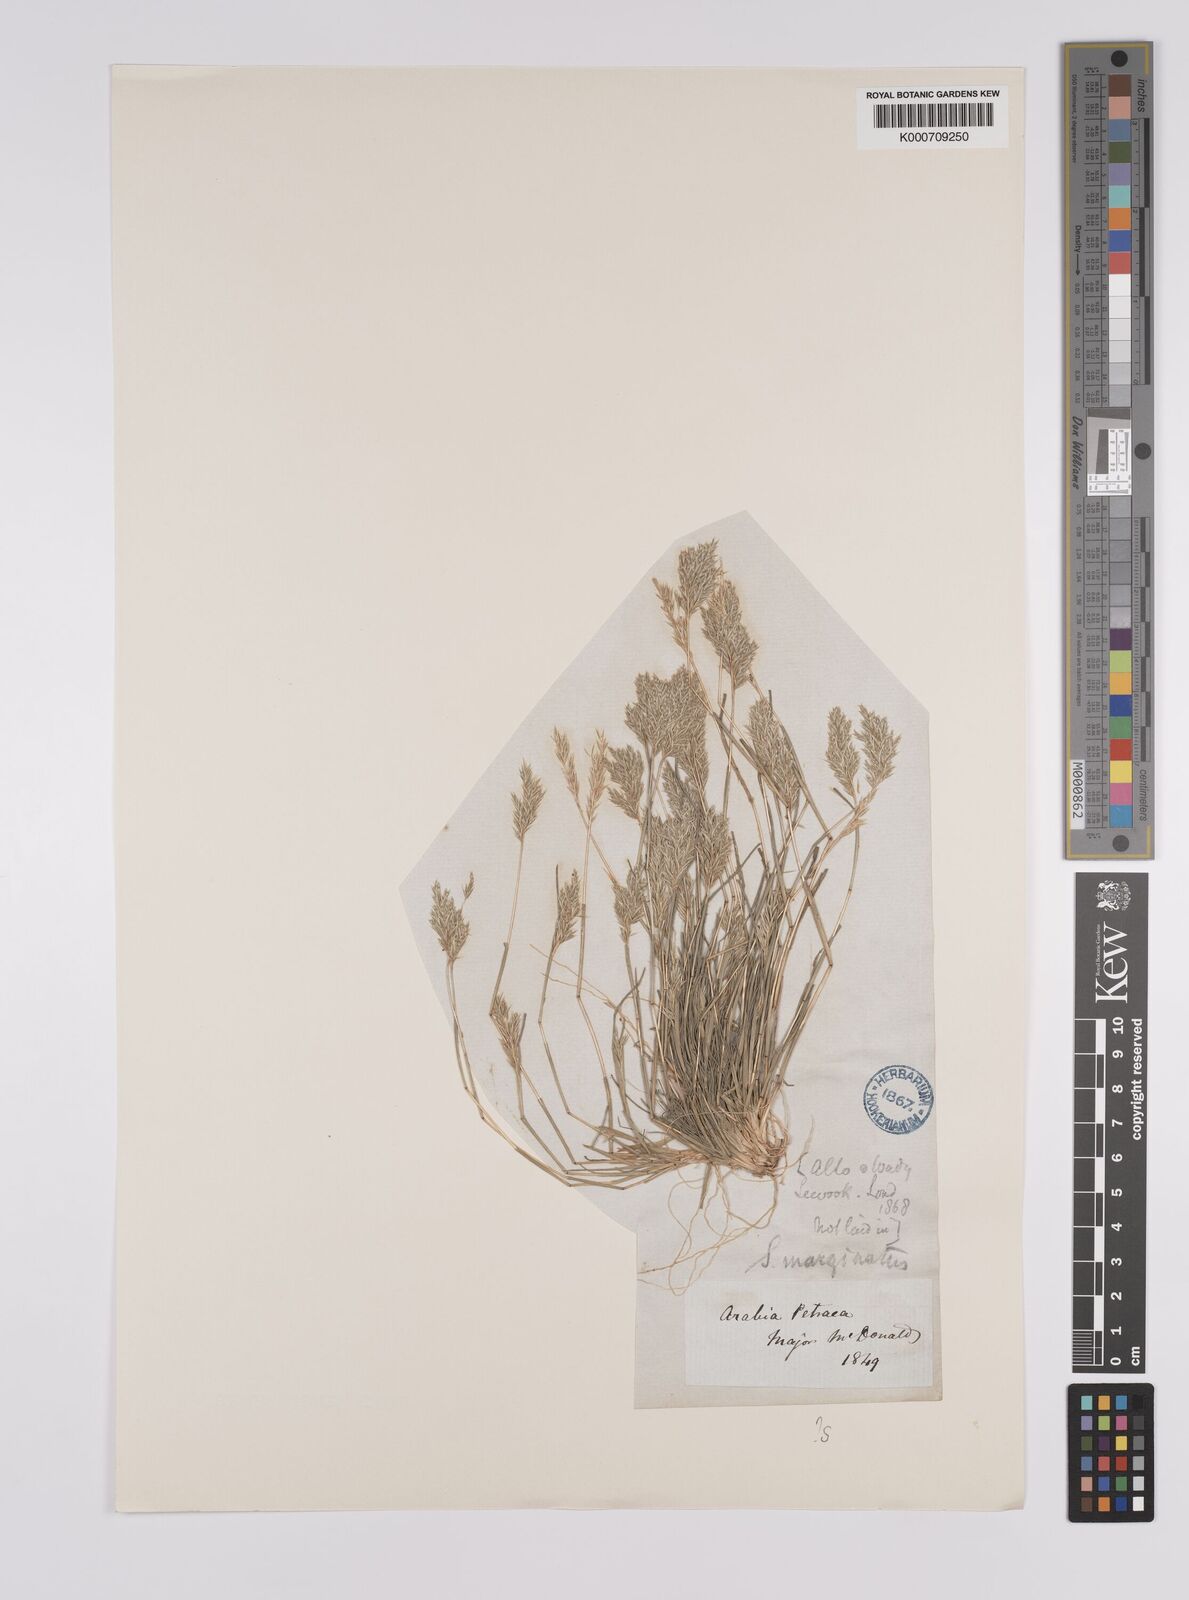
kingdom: Plantae
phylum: Tracheophyta
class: Liliopsida
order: Poales
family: Poaceae
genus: Schismus
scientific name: Schismus barbatus
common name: Kelch-grass
